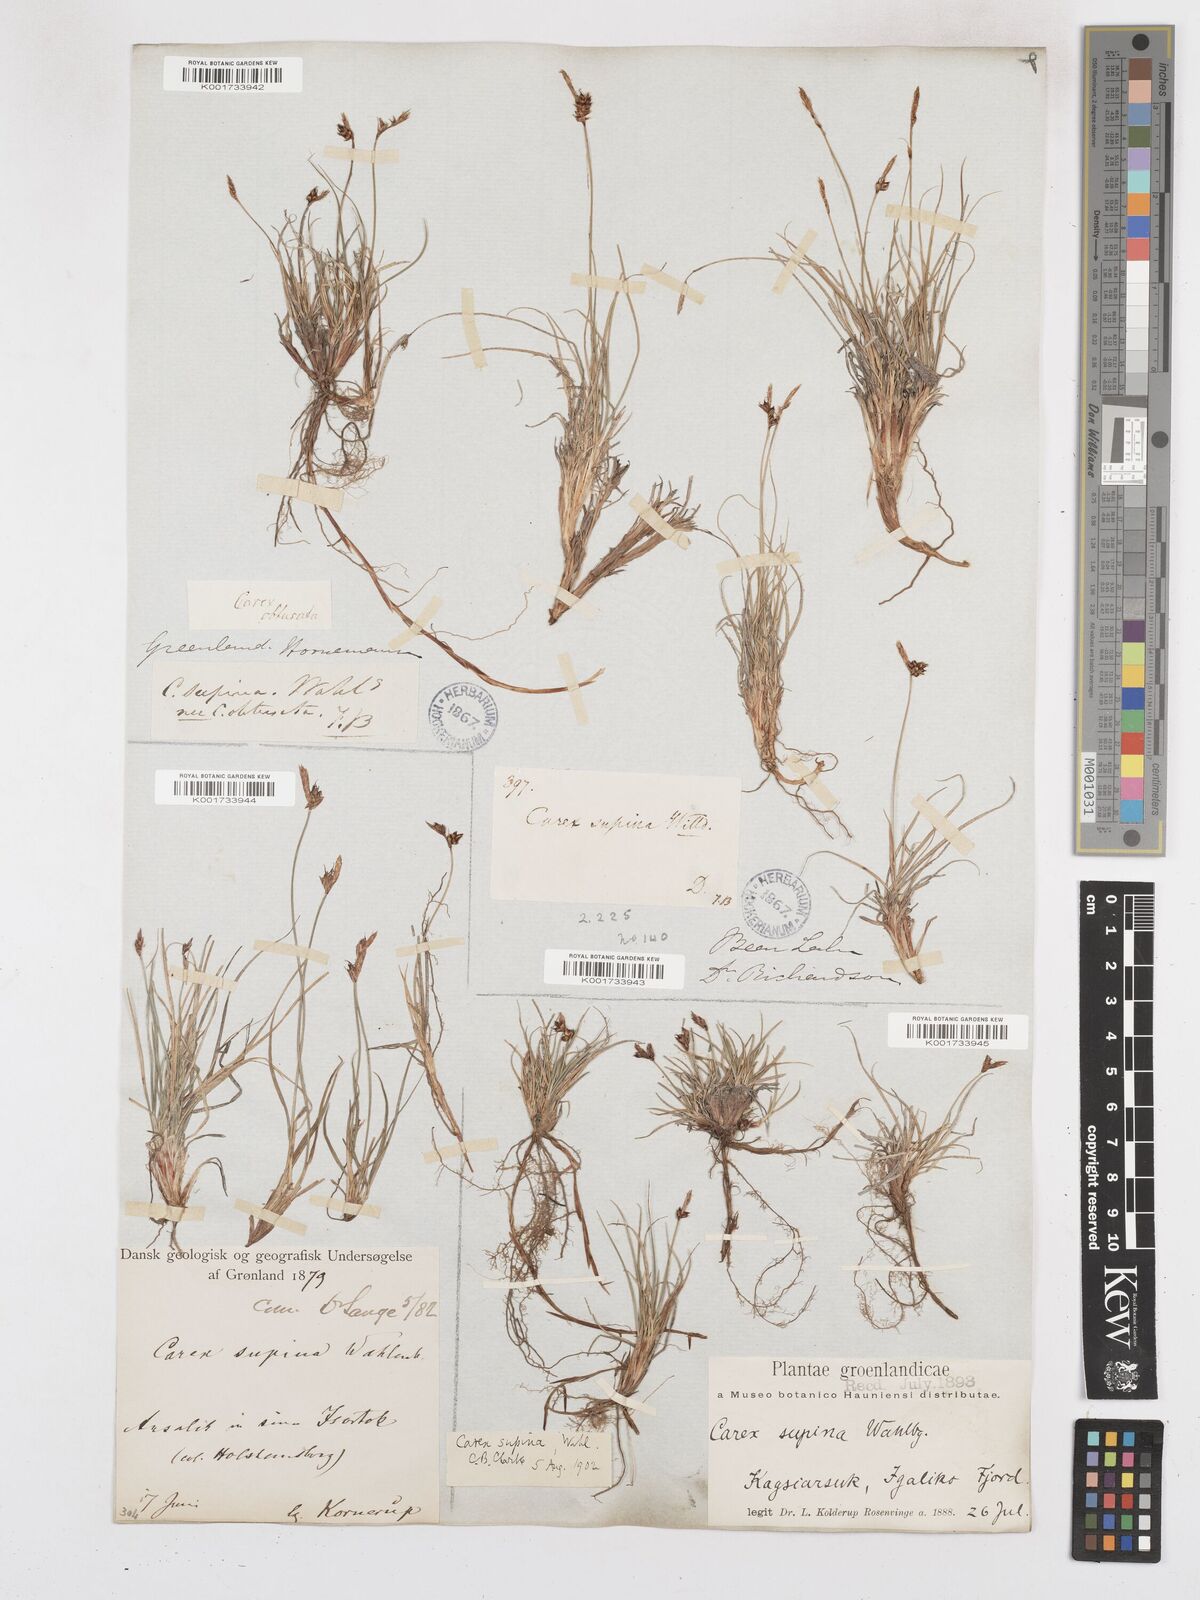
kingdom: Plantae
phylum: Tracheophyta
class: Liliopsida
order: Poales
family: Cyperaceae
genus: Carex
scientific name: Carex supina
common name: Lying-back sedge
